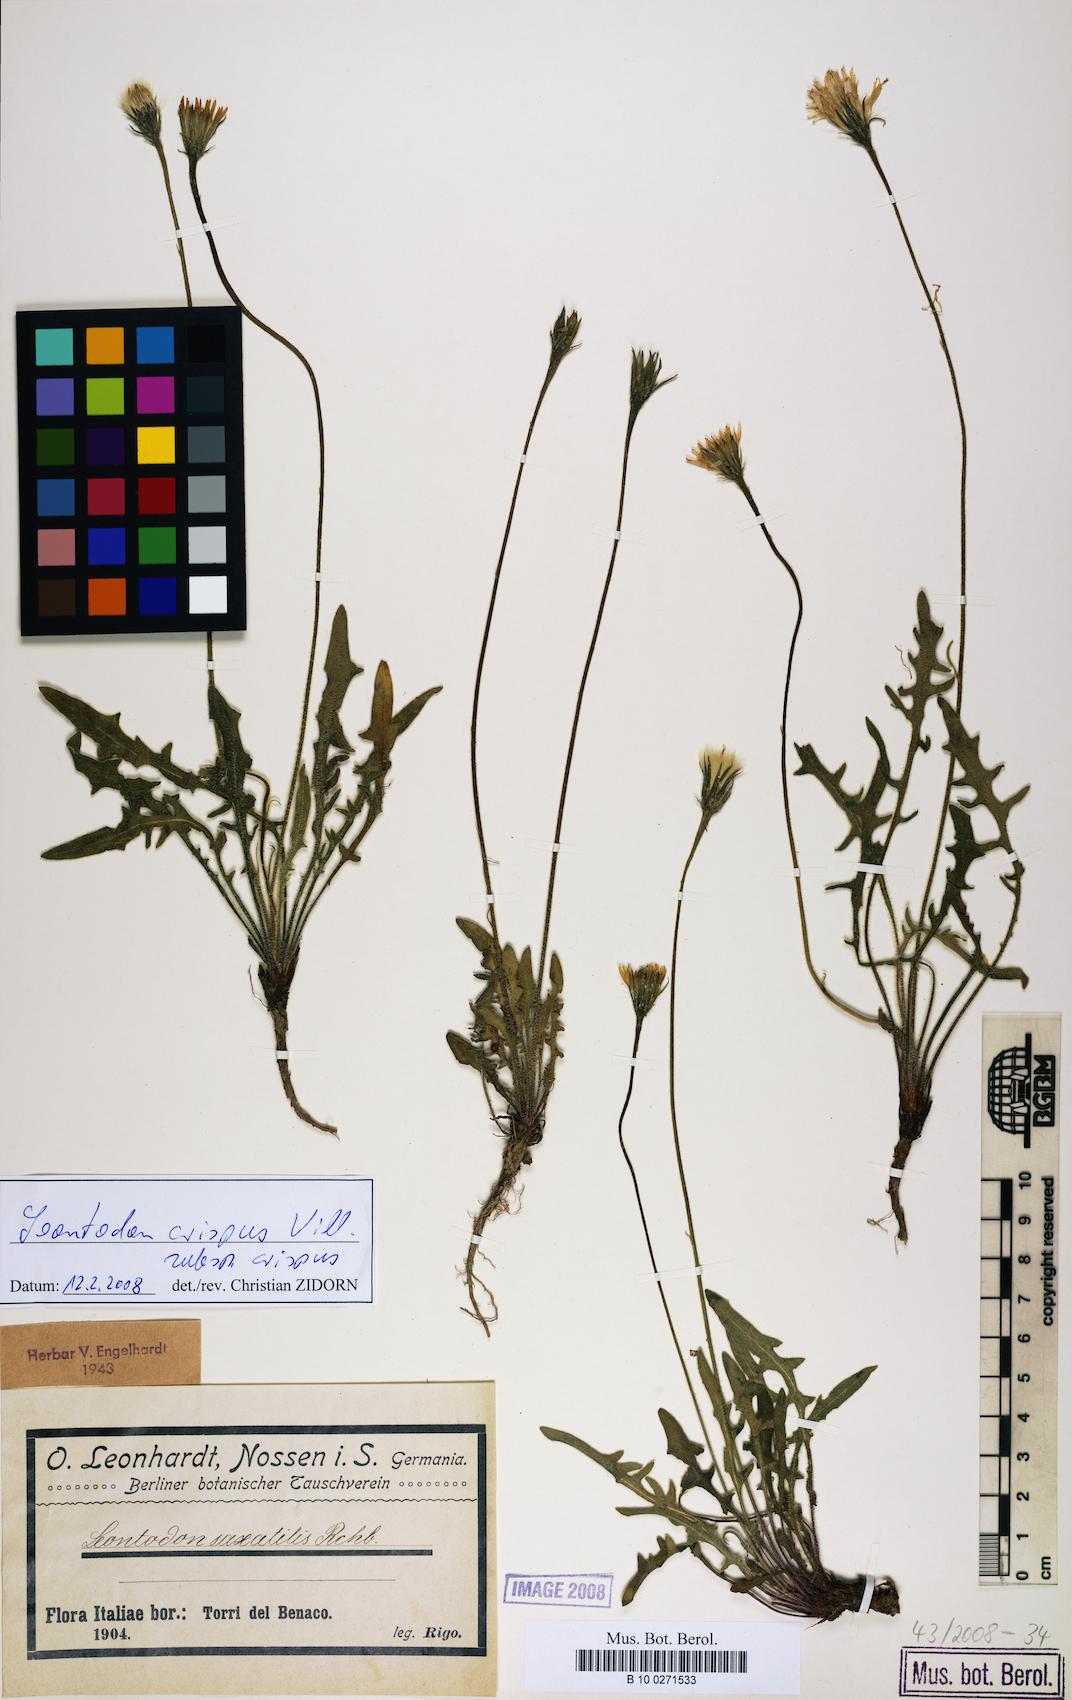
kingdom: Plantae
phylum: Tracheophyta
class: Magnoliopsida
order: Asterales
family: Asteraceae
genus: Leontodon
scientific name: Leontodon hyoseroides
